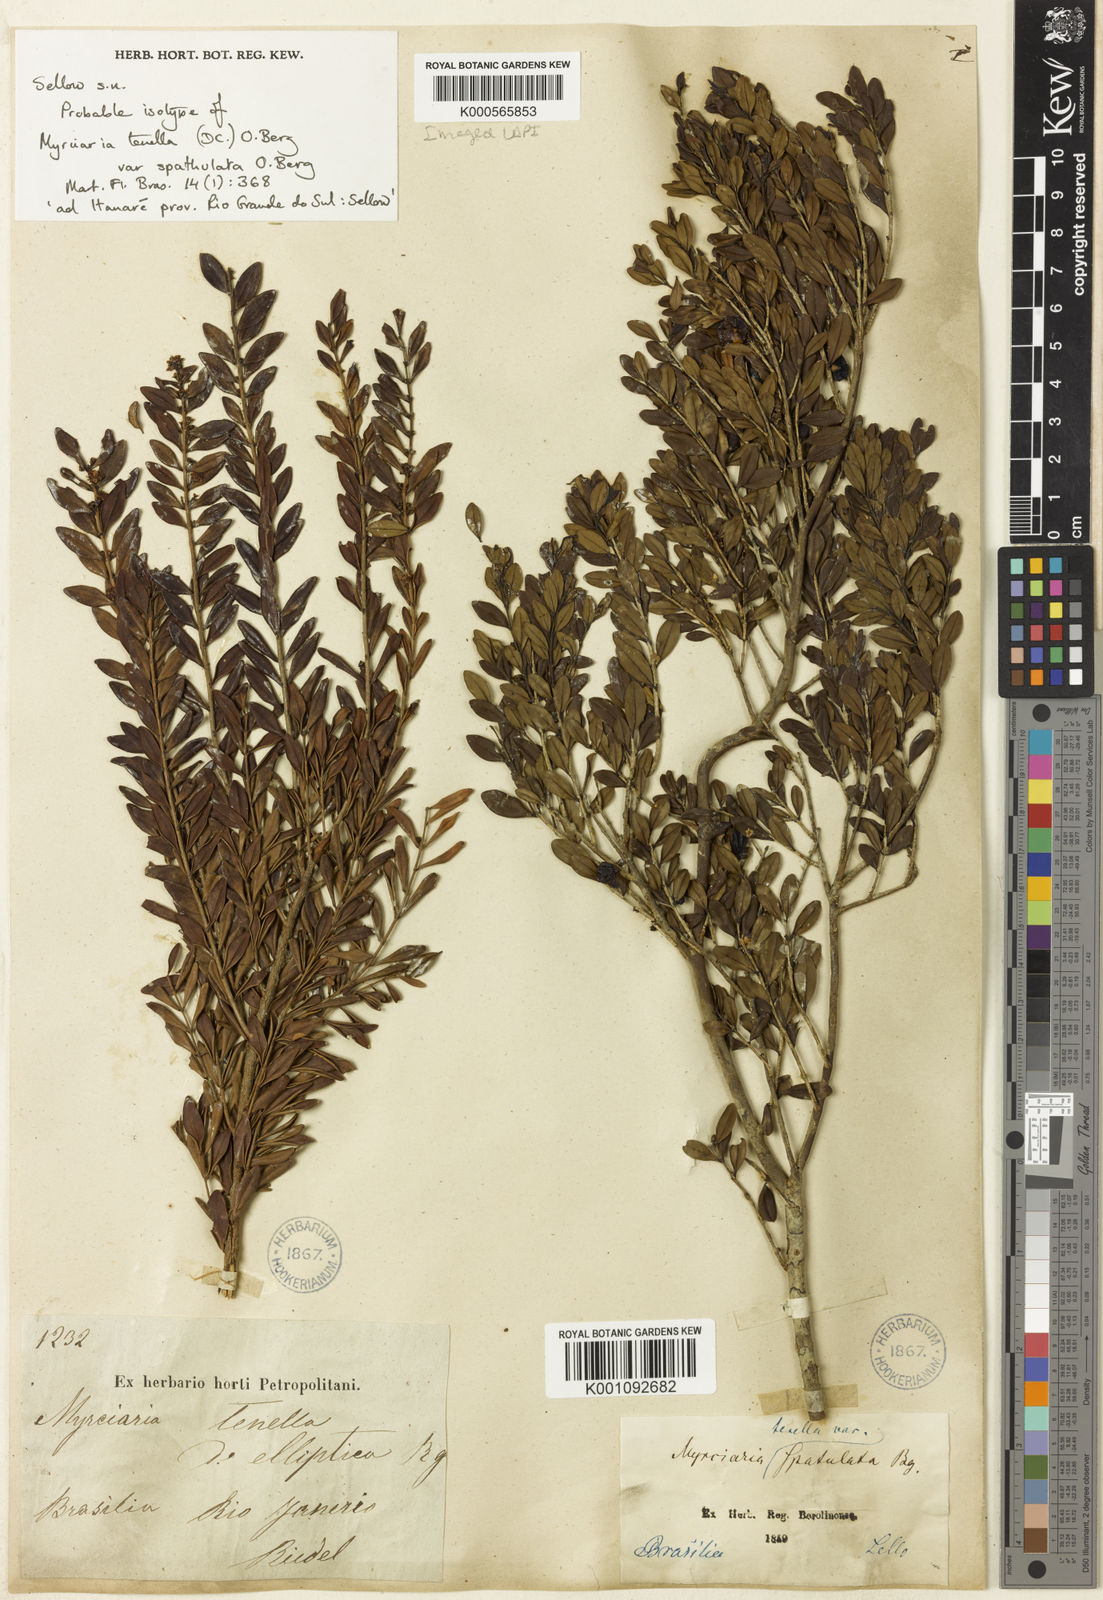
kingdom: Plantae
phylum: Tracheophyta
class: Magnoliopsida
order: Myrtales
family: Myrtaceae
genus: Myrciaria
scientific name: Myrciaria tenella
